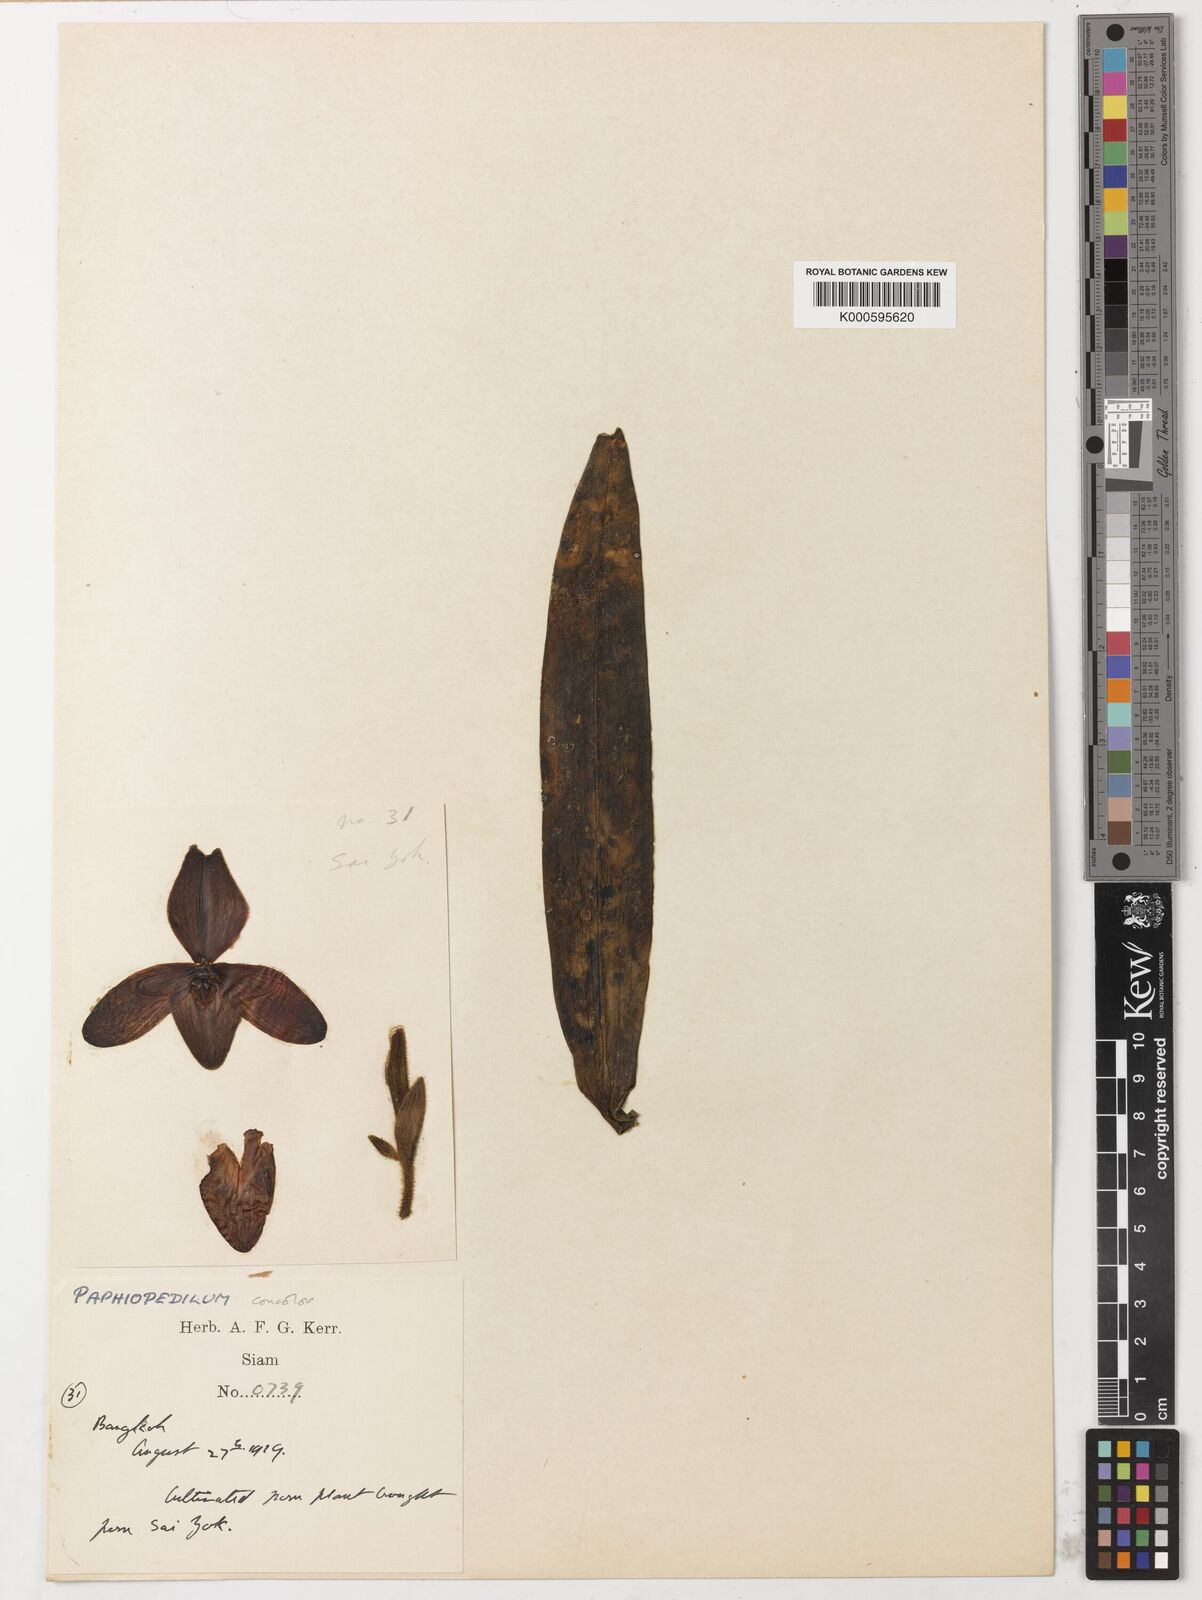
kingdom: Plantae
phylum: Tracheophyta
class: Liliopsida
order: Asparagales
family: Orchidaceae
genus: Paphiopedilum
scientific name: Paphiopedilum concolor
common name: One colored paphiopedilum
